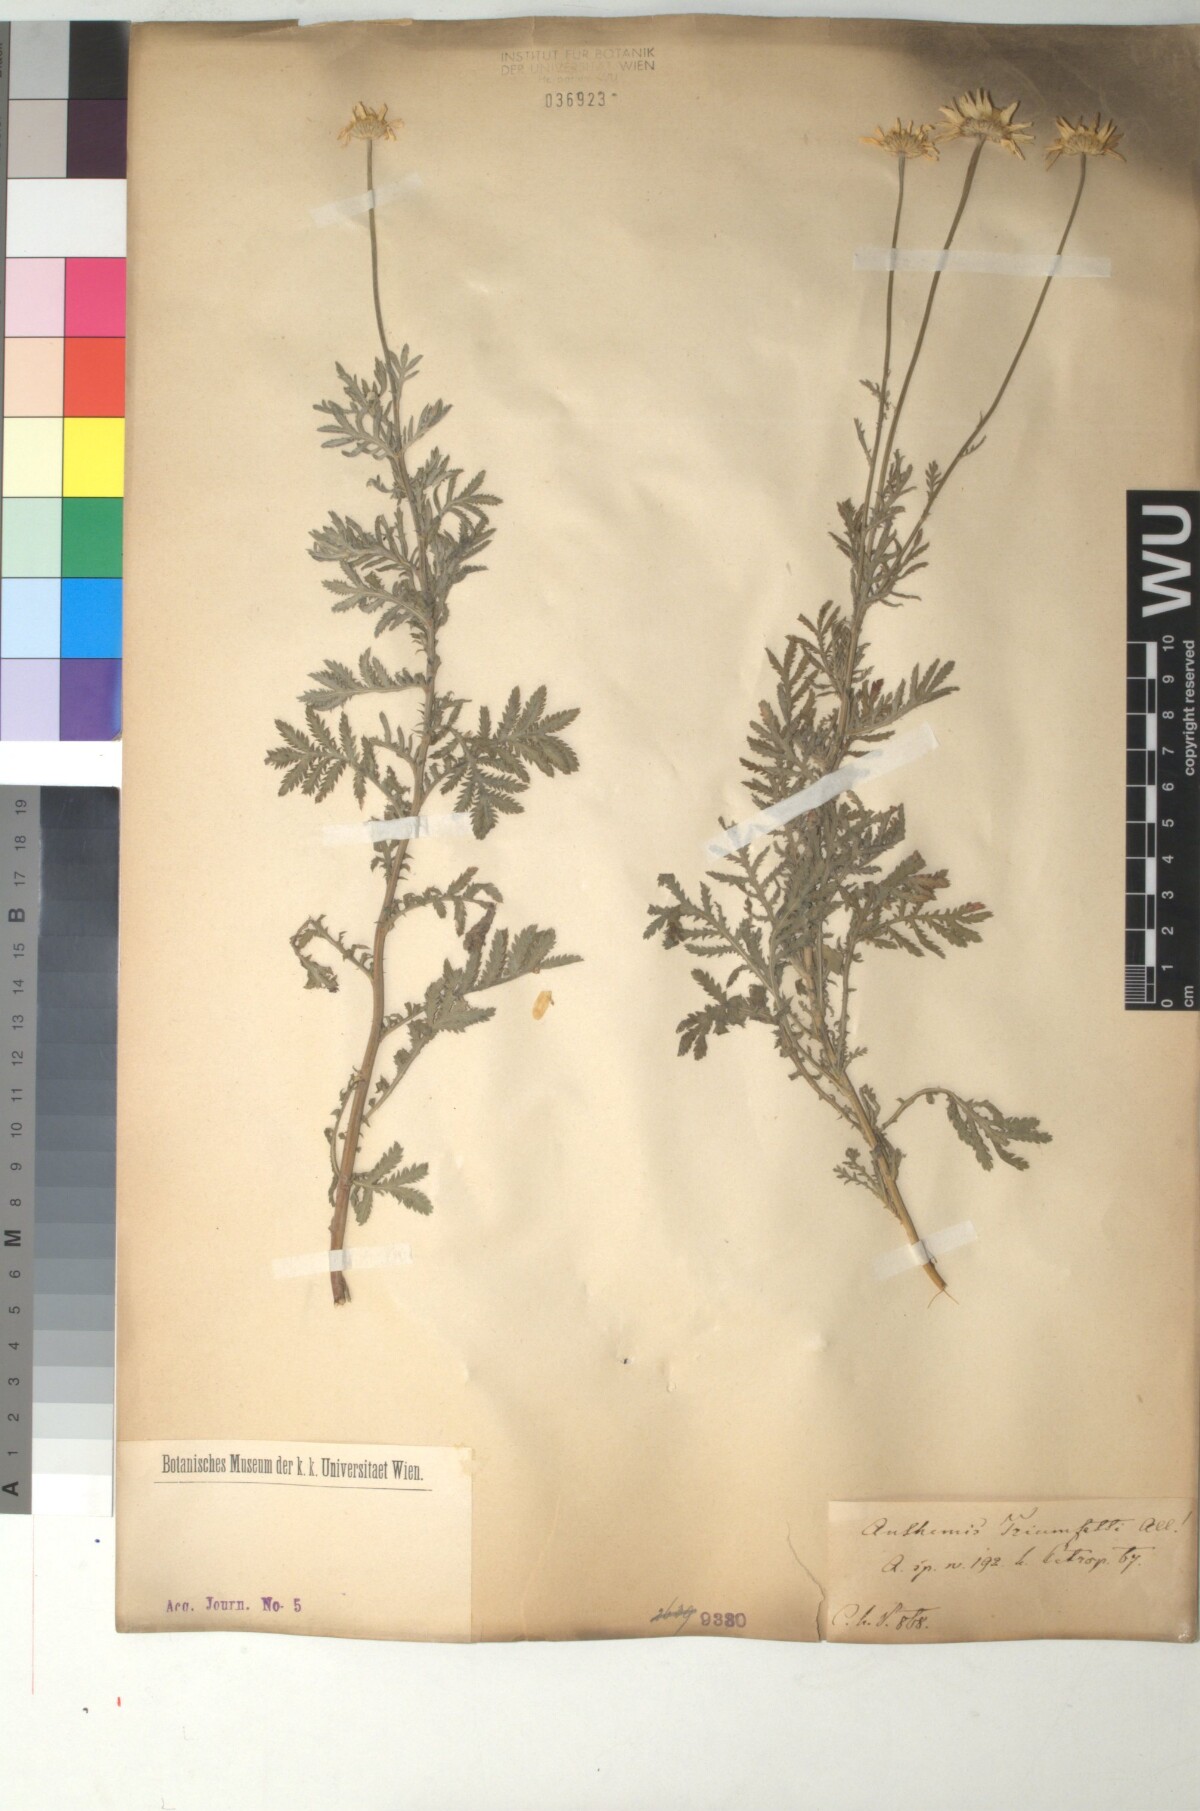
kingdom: Plantae
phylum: Tracheophyta
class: Magnoliopsida
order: Asterales
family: Asteraceae
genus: Cota
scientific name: Cota triumfetti
